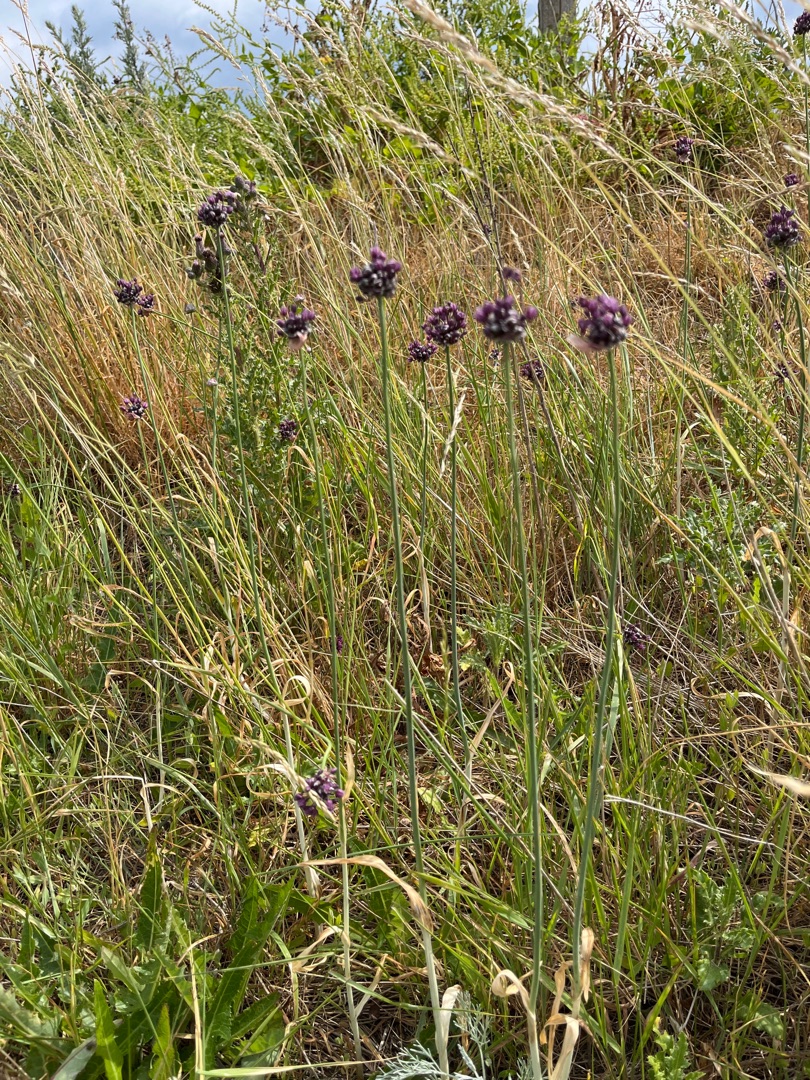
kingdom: Plantae
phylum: Tracheophyta
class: Liliopsida
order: Asparagales
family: Amaryllidaceae
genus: Allium
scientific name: Allium scorodoprasum
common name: Skov-løg
